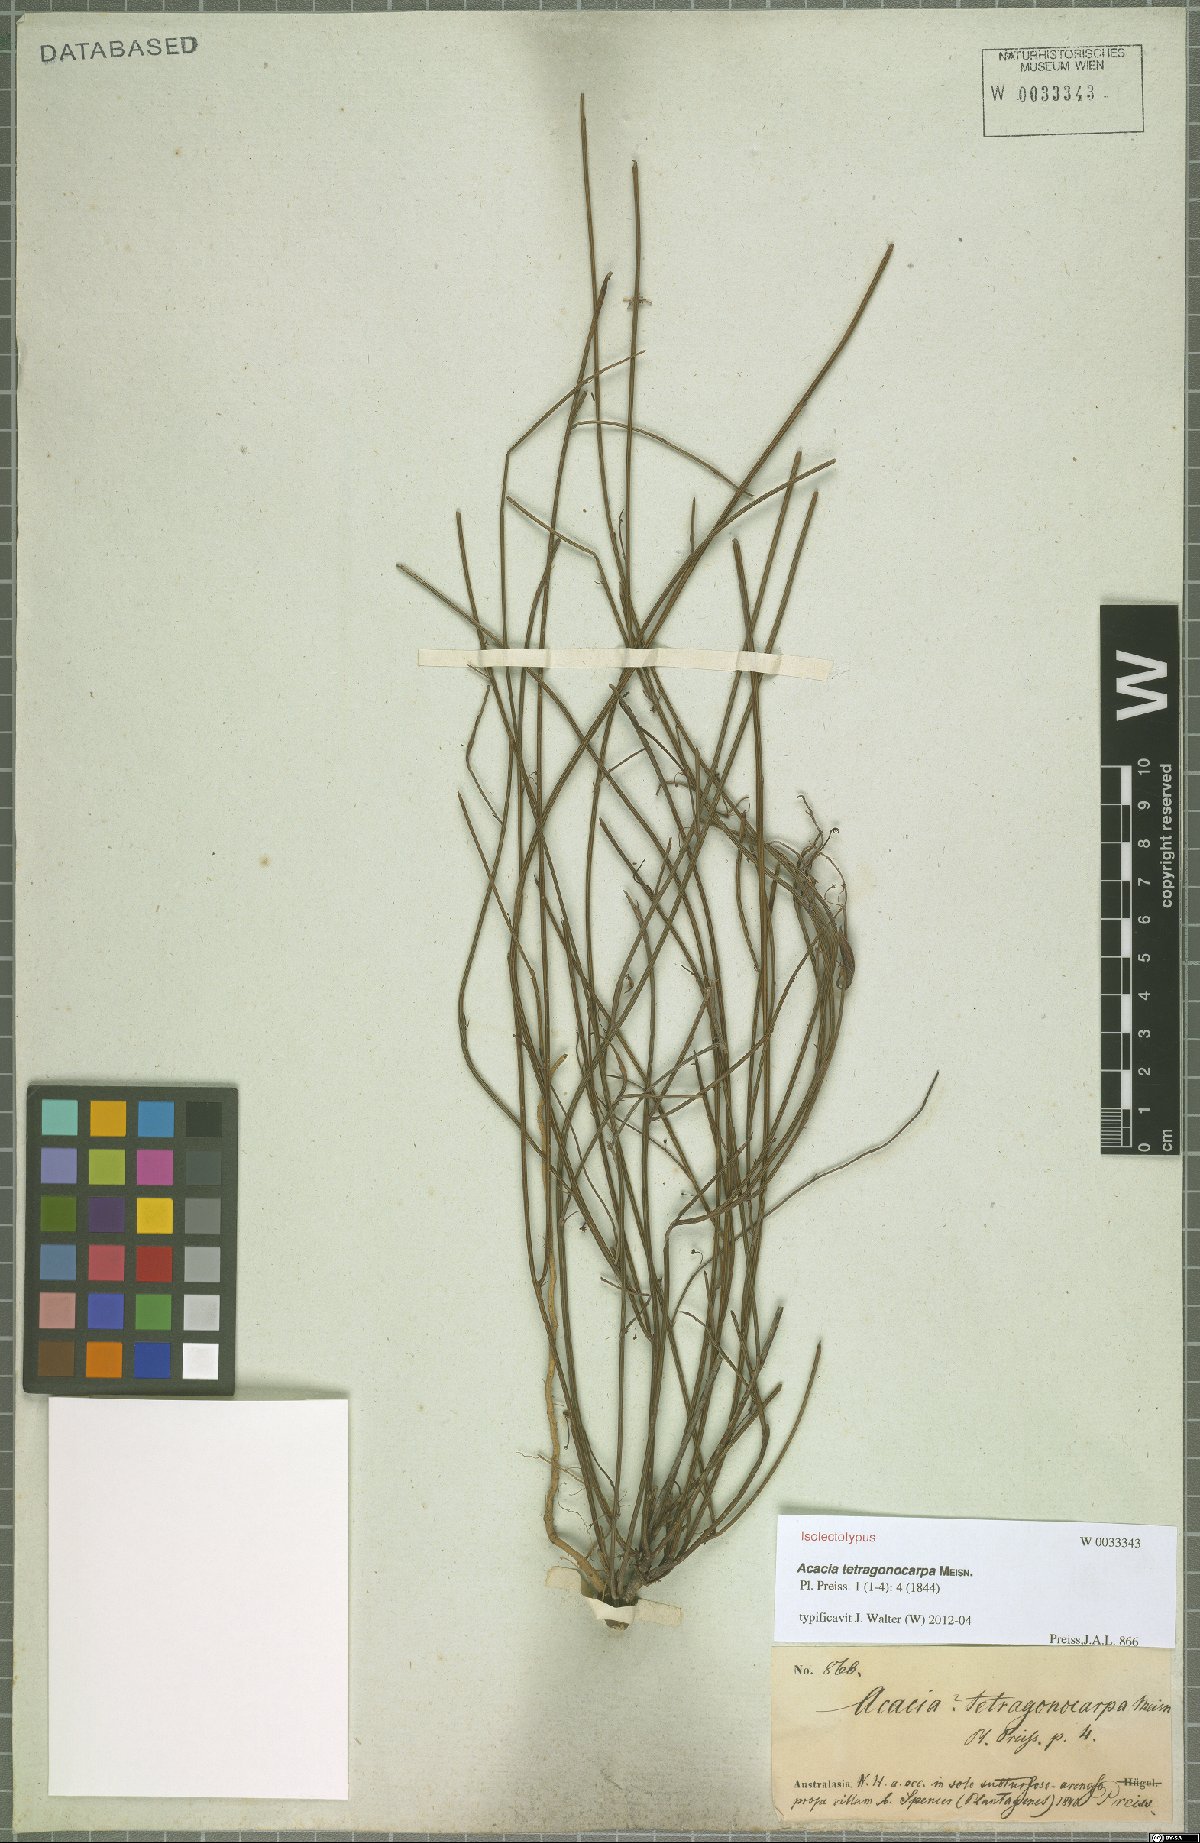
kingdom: Plantae
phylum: Tracheophyta
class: Magnoliopsida
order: Fabales
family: Fabaceae
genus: Acacia
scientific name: Acacia tetragonocarpa
